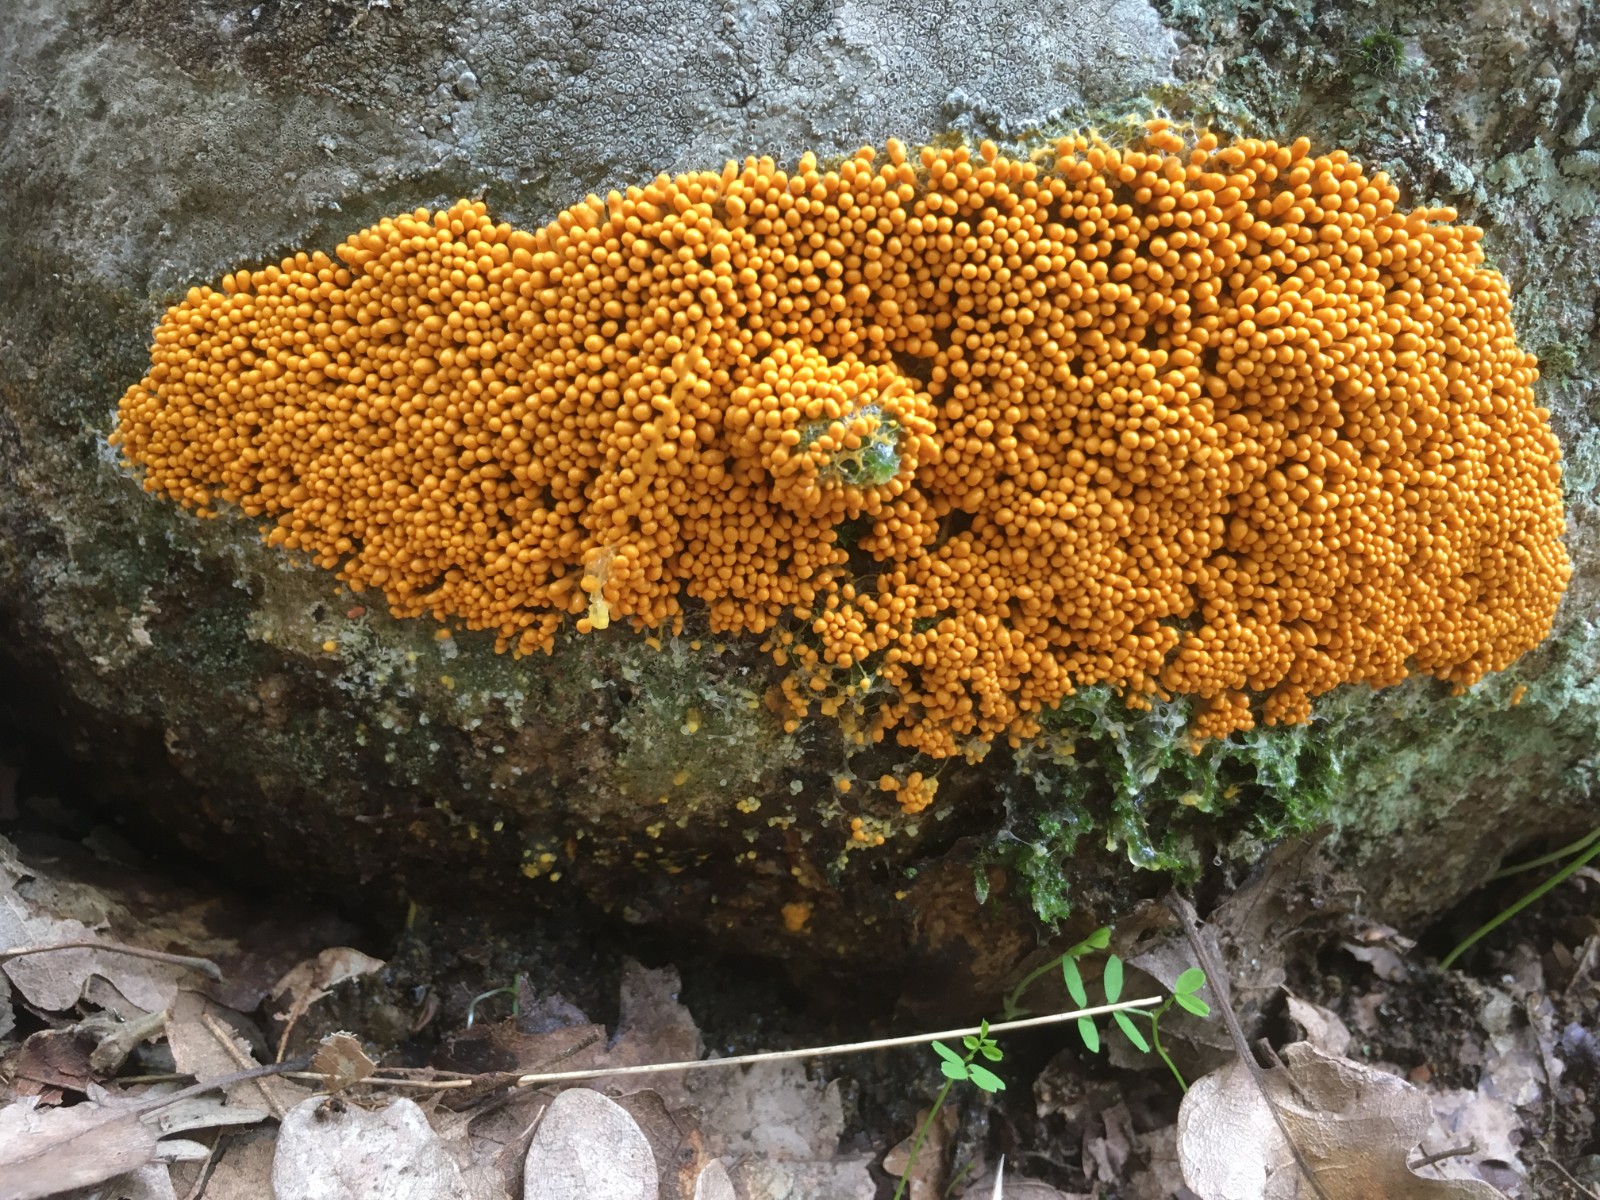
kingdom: Protozoa
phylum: Mycetozoa
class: Myxomycetes
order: Physarales
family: Physaraceae
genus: Leocarpus
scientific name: Leocarpus fragilis
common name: poleret glatfrø
